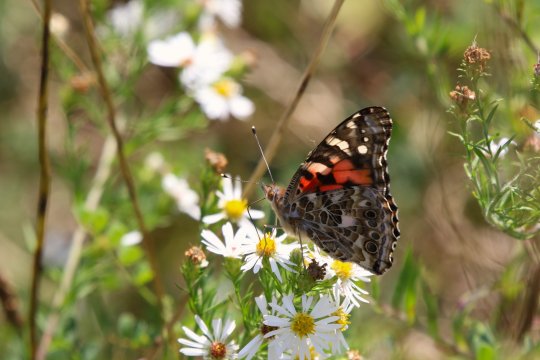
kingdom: Animalia
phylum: Arthropoda
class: Insecta
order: Lepidoptera
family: Nymphalidae
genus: Vanessa
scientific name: Vanessa cardui
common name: Painted Lady
